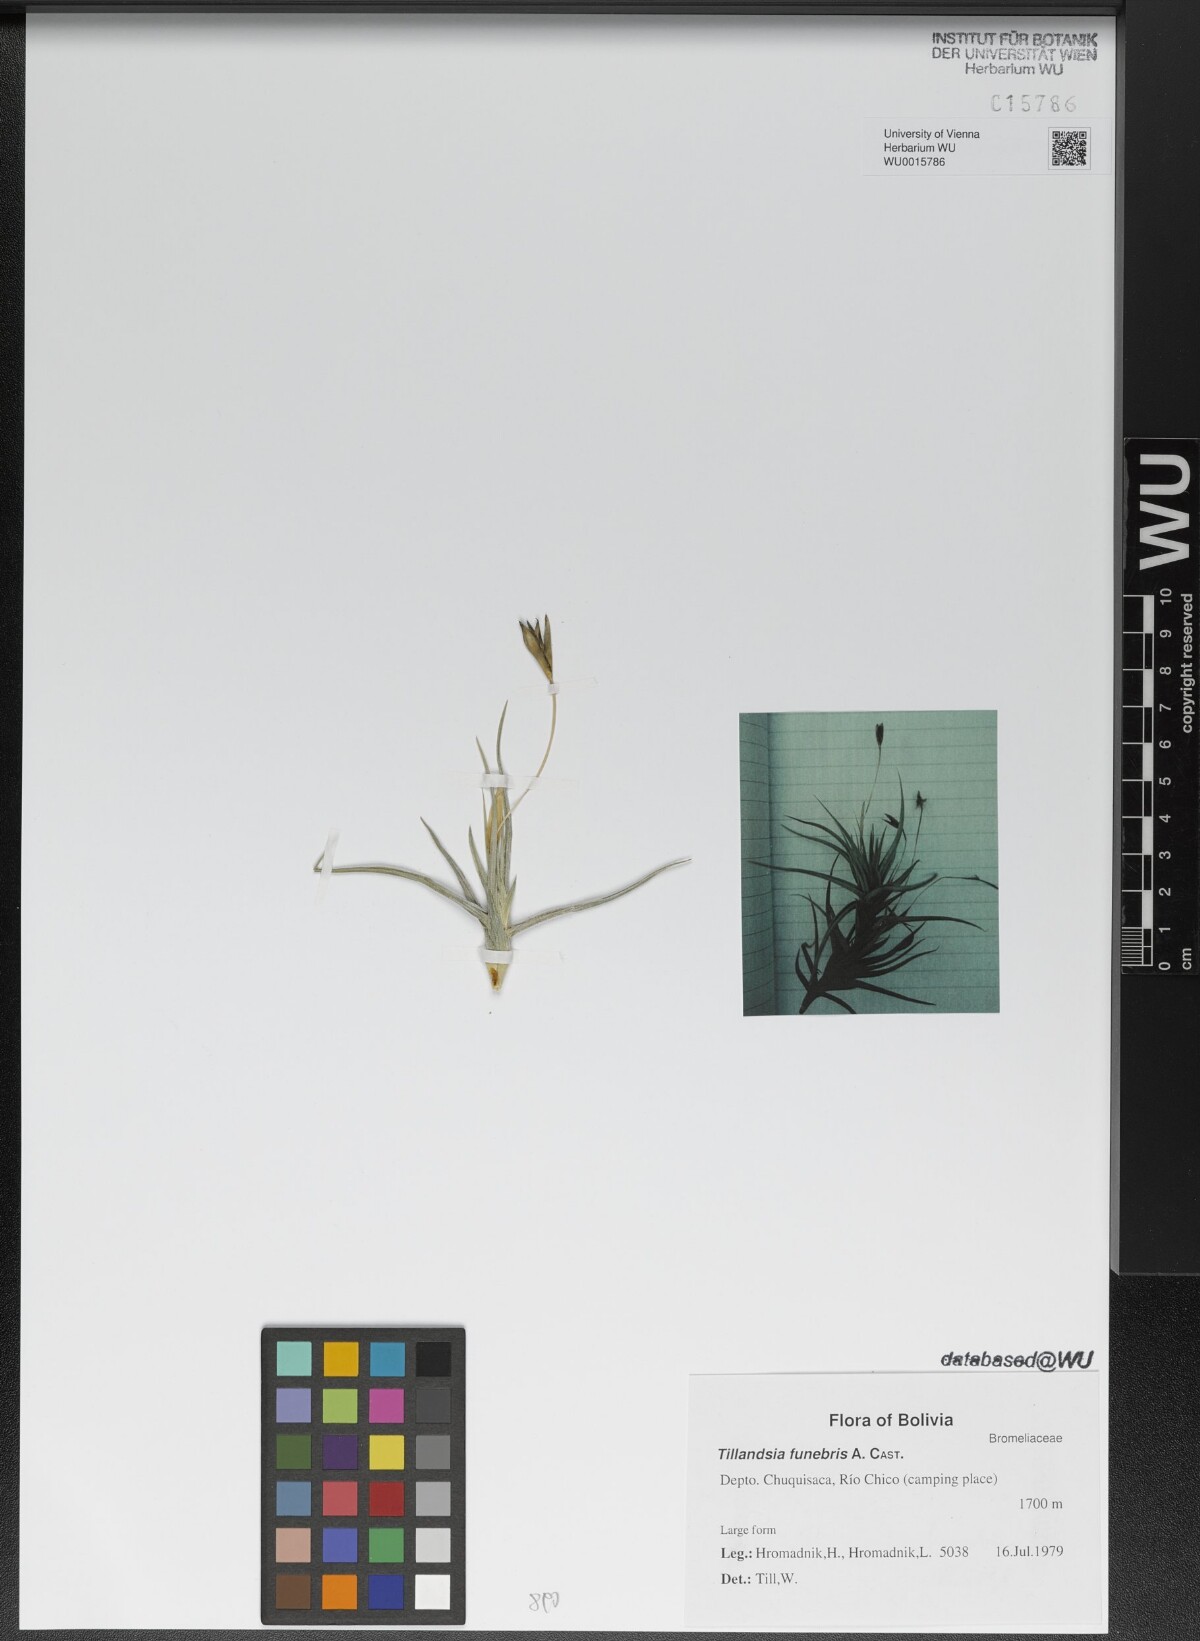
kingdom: Plantae
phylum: Tracheophyta
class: Liliopsida
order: Poales
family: Bromeliaceae
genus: Tillandsia
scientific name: Tillandsia funebris
